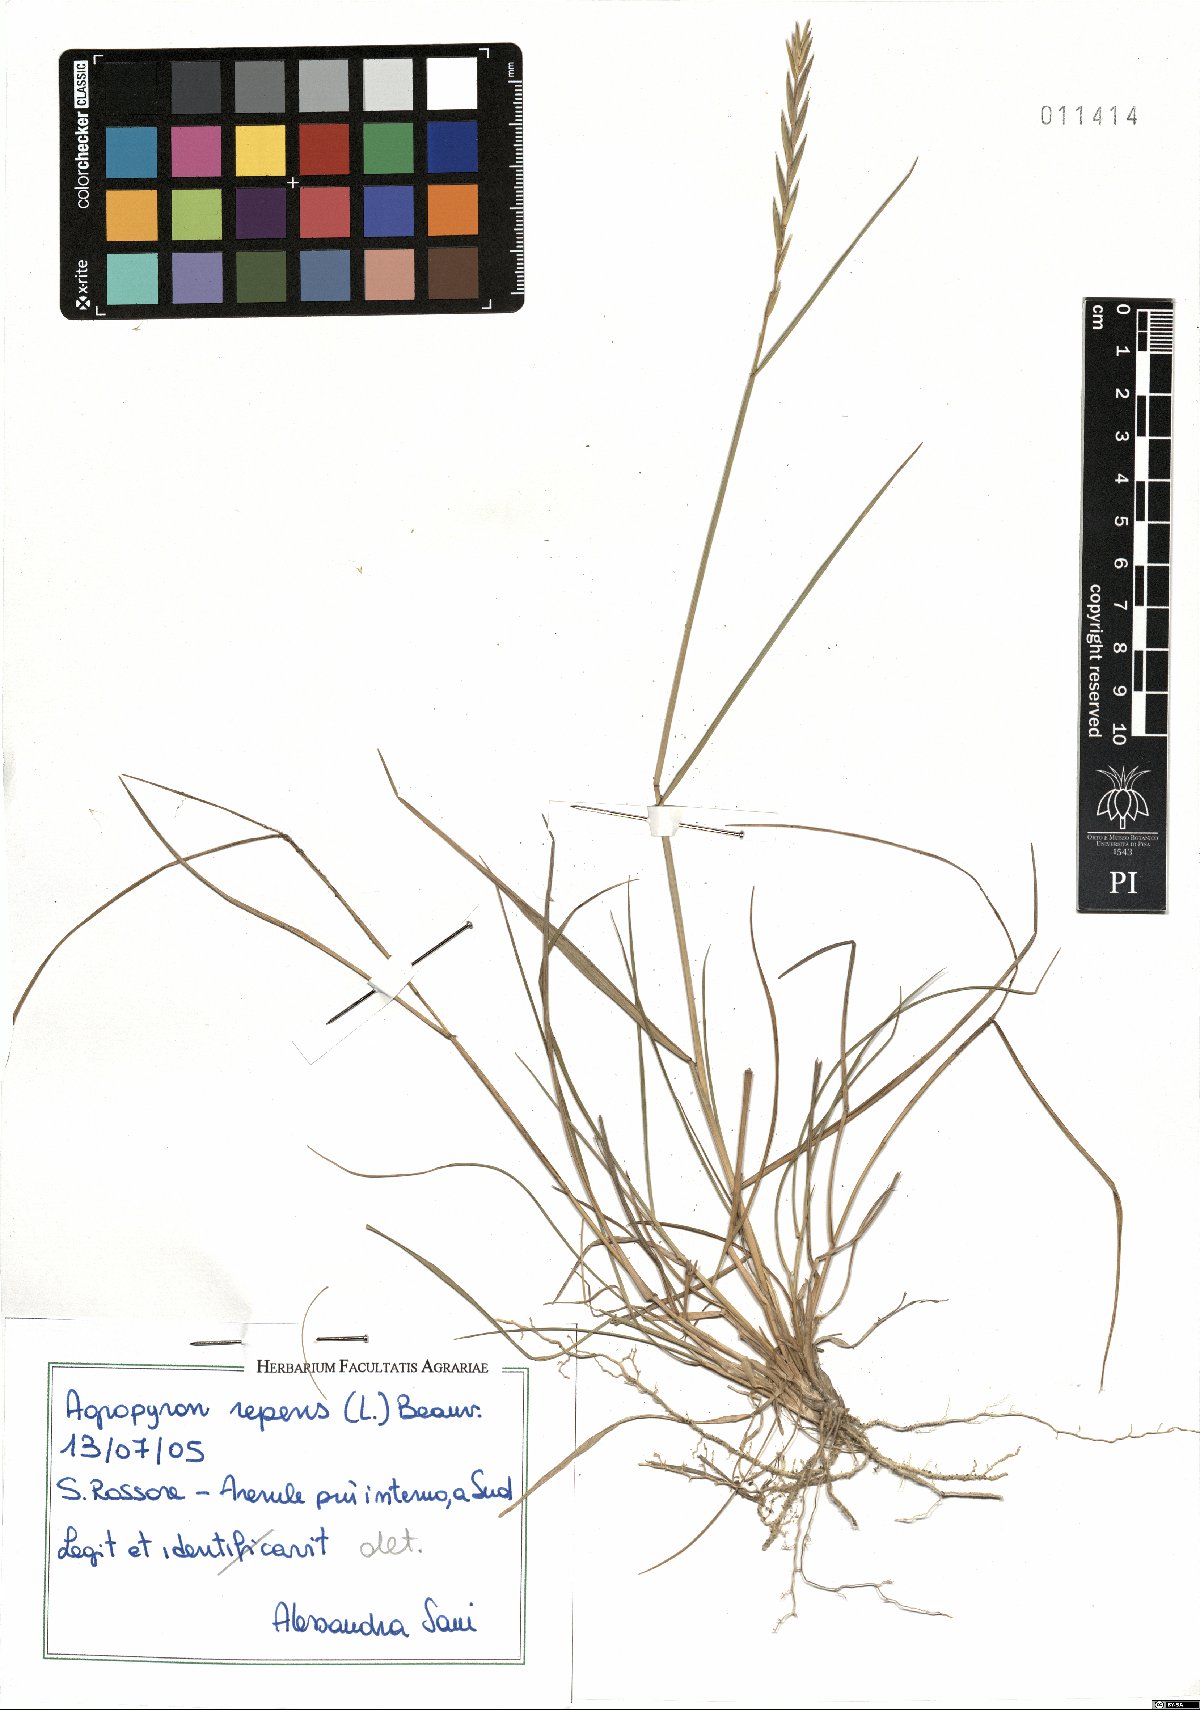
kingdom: Plantae
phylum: Tracheophyta
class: Liliopsida
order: Poales
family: Poaceae
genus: Elymus
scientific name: Elymus repens
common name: Quackgrass
